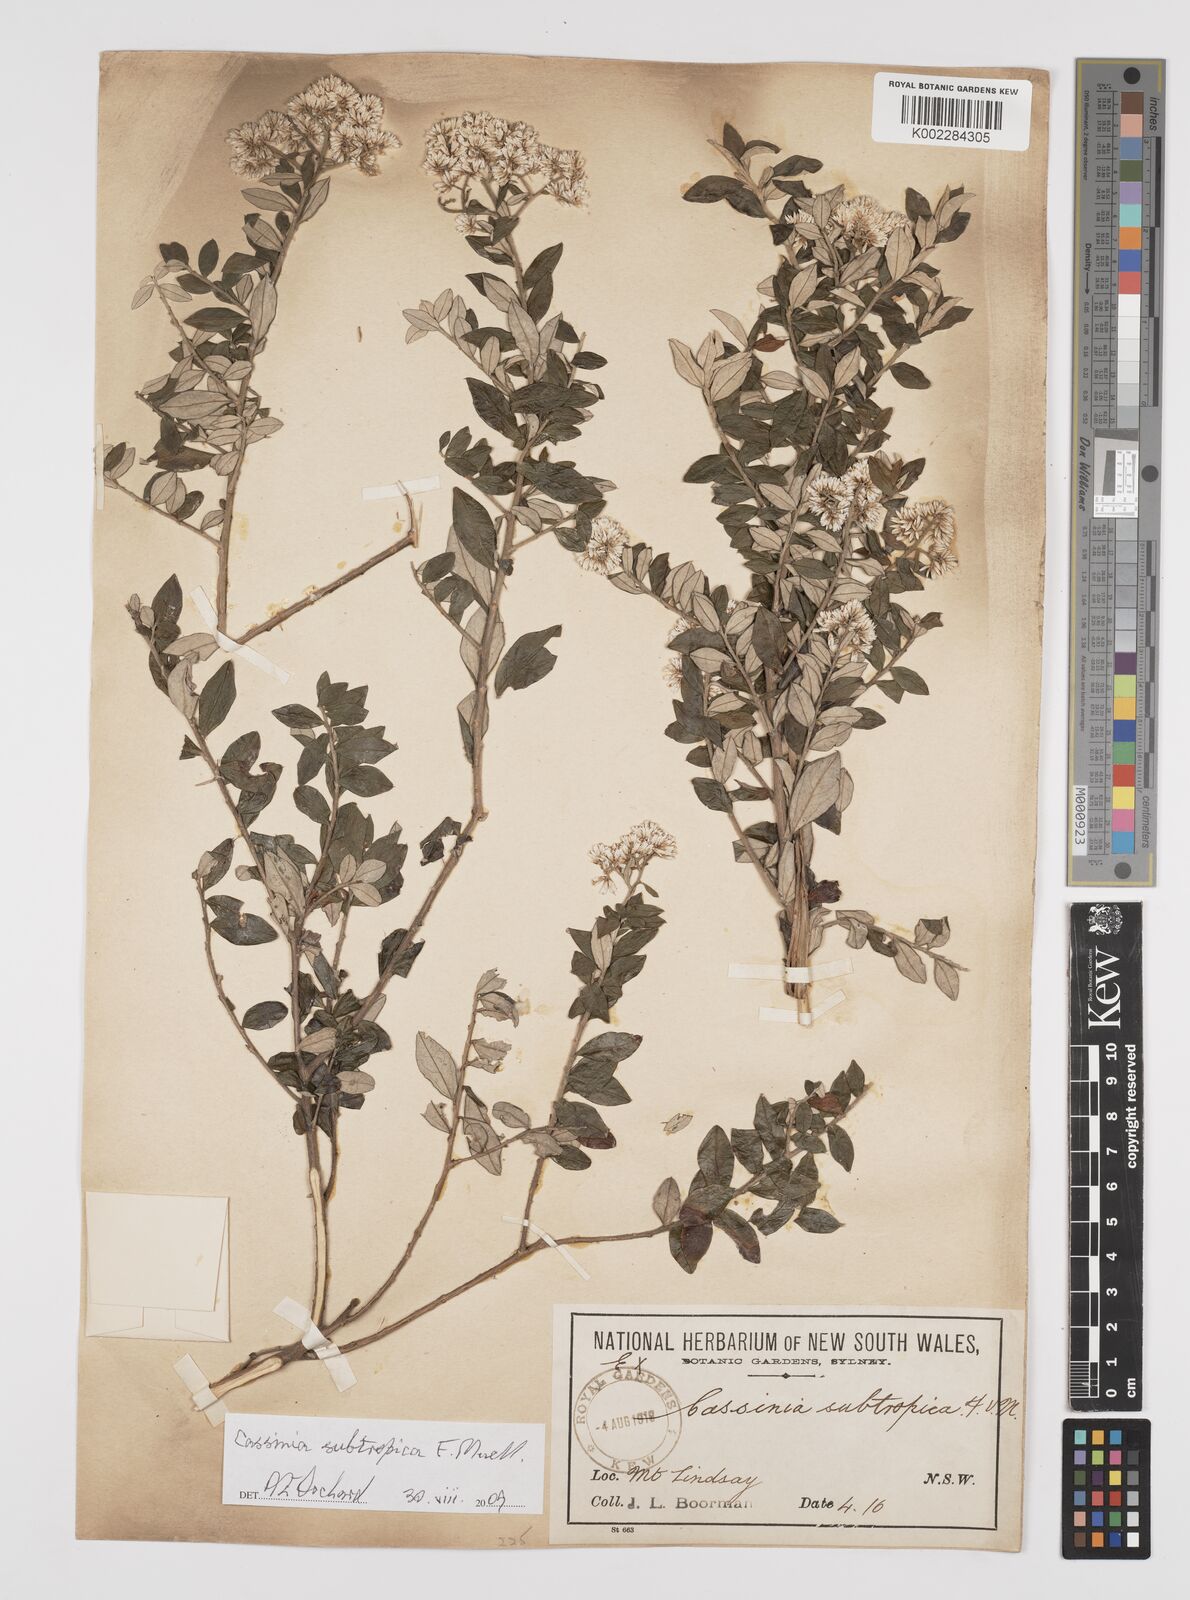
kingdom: Plantae
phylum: Tracheophyta
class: Magnoliopsida
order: Asterales
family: Asteraceae
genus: Cassinia
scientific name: Cassinia subtropica
